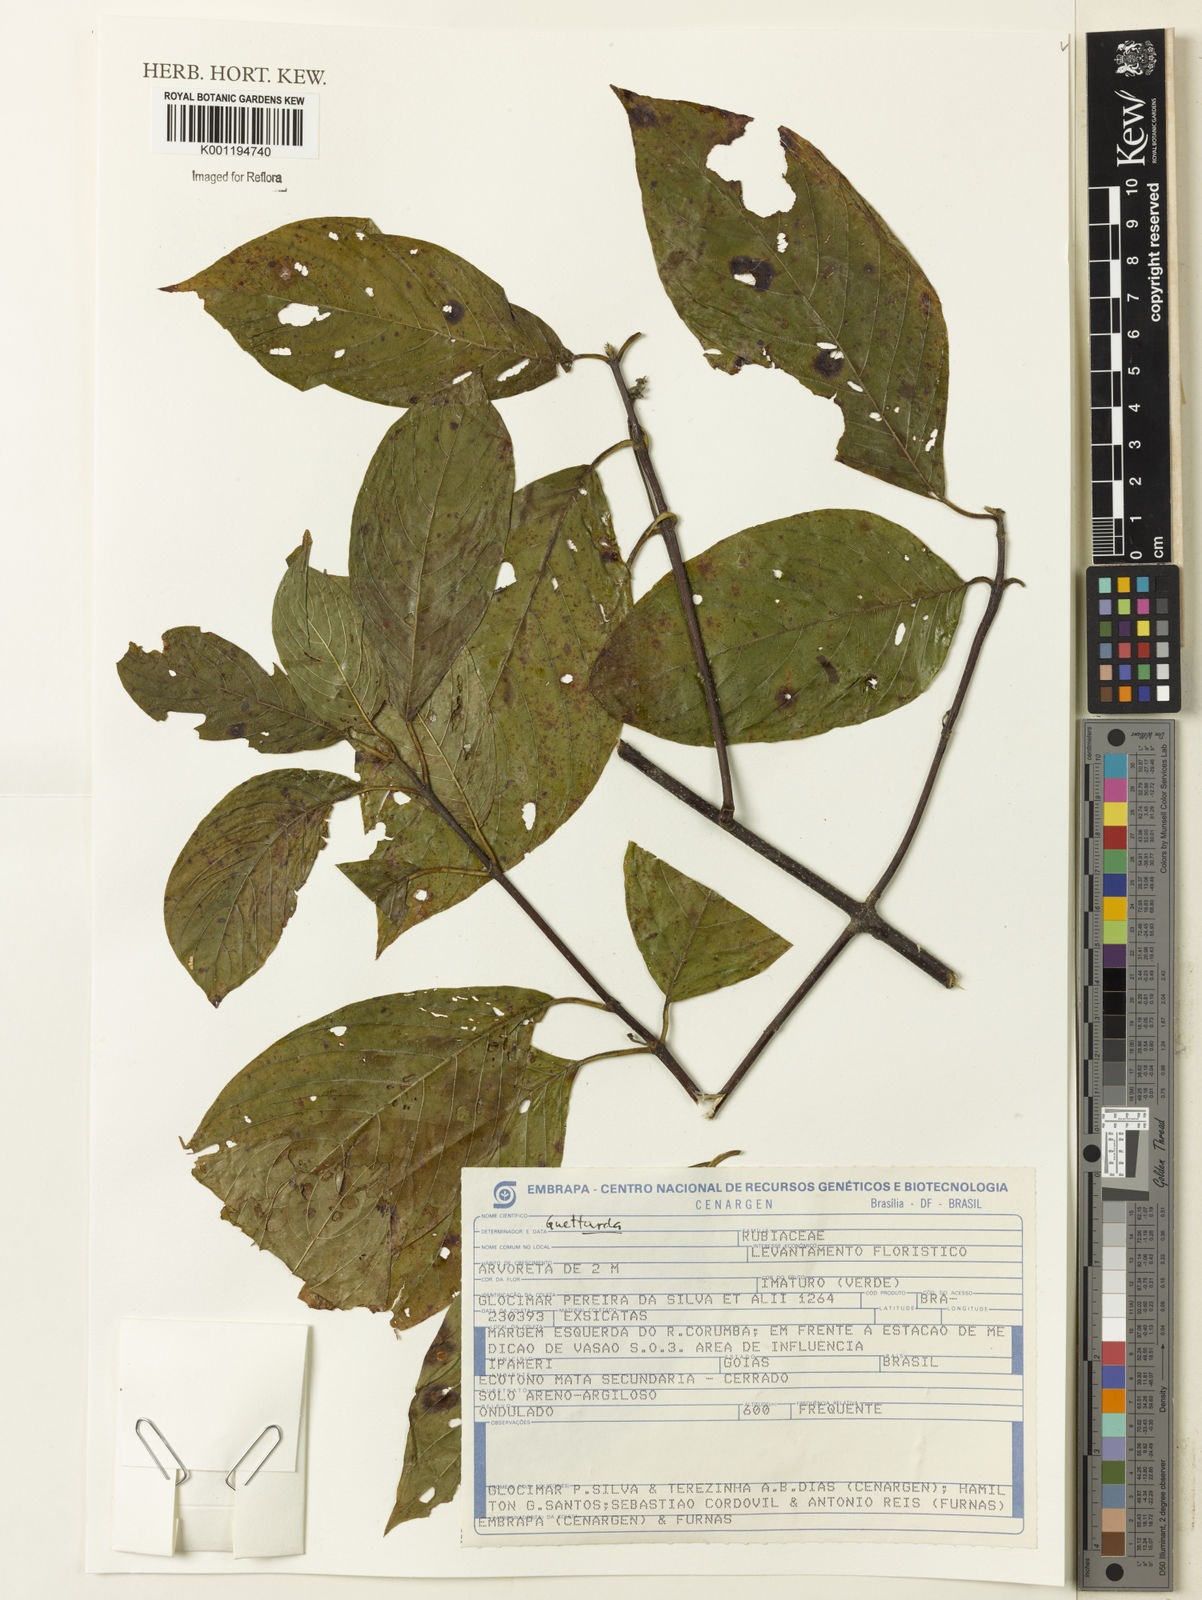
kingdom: Plantae
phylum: Tracheophyta
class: Magnoliopsida
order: Gentianales
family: Rubiaceae
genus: Guettarda
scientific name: Guettarda
